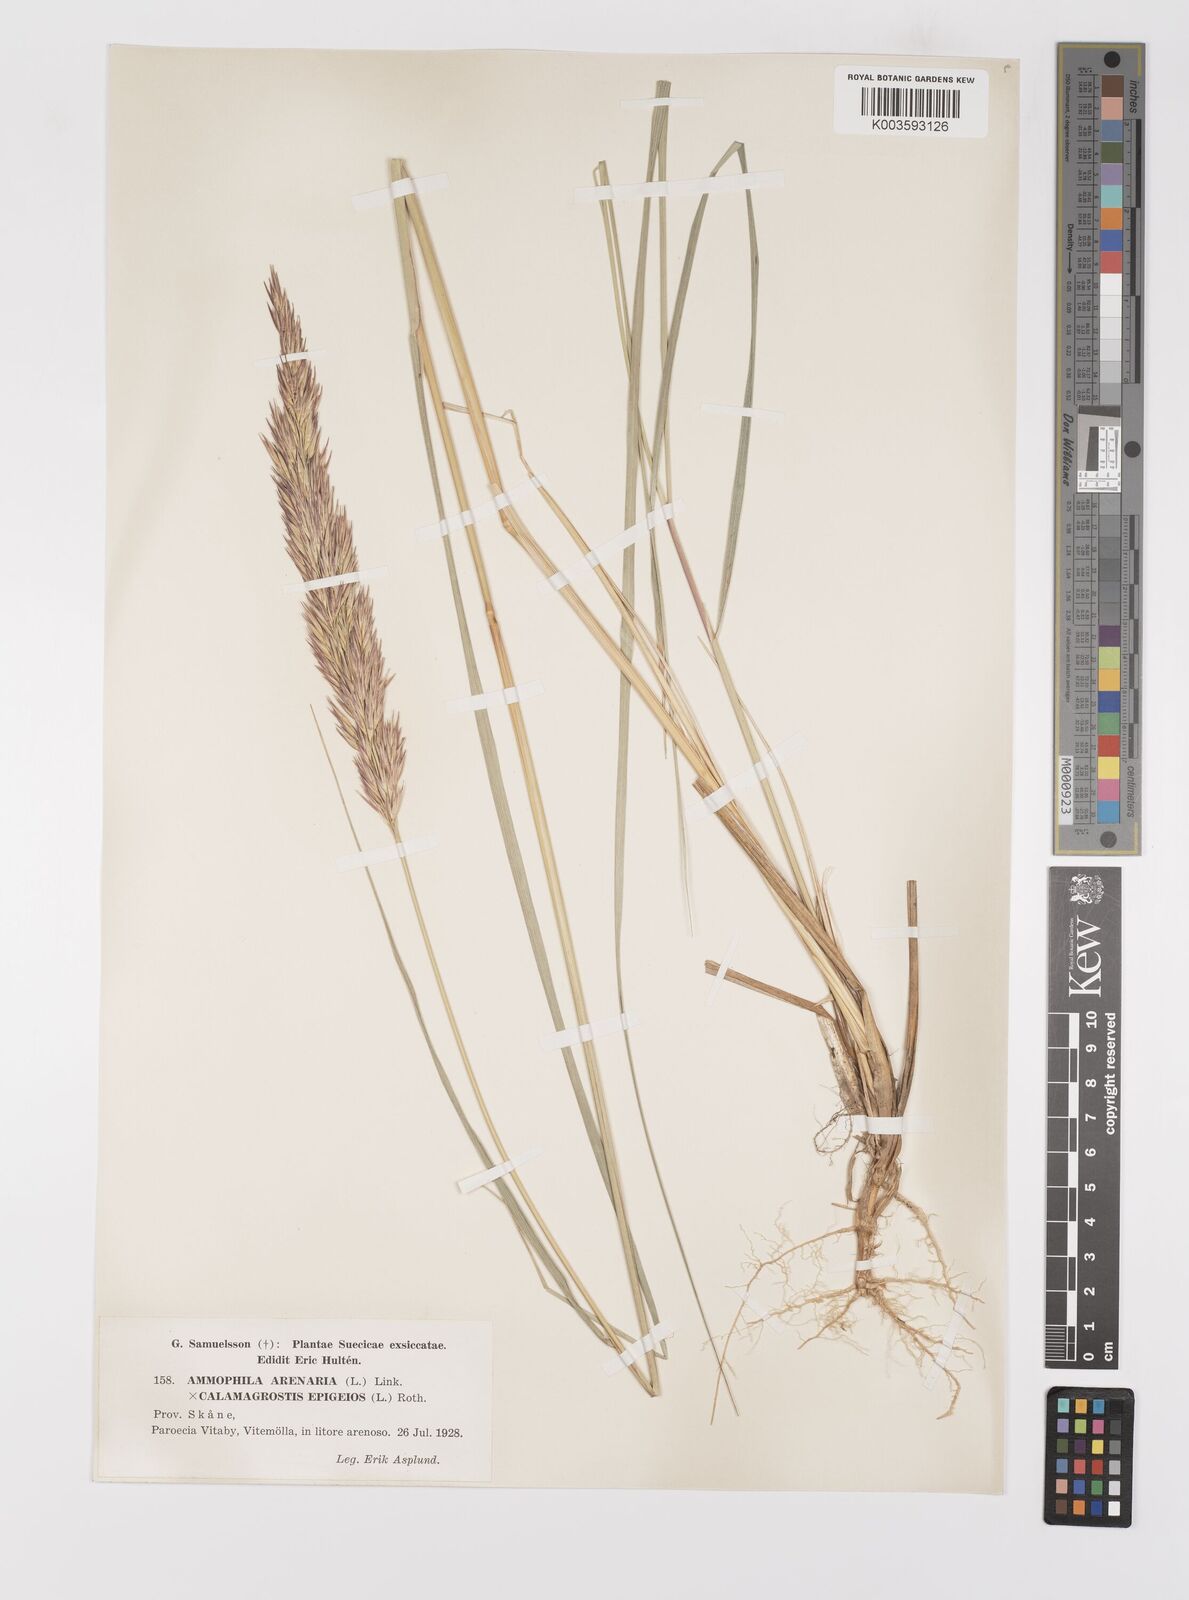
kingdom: Plantae
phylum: Tracheophyta
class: Liliopsida
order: Poales
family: Poaceae
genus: Calamagrostis
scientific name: Calamagrostis baltica
